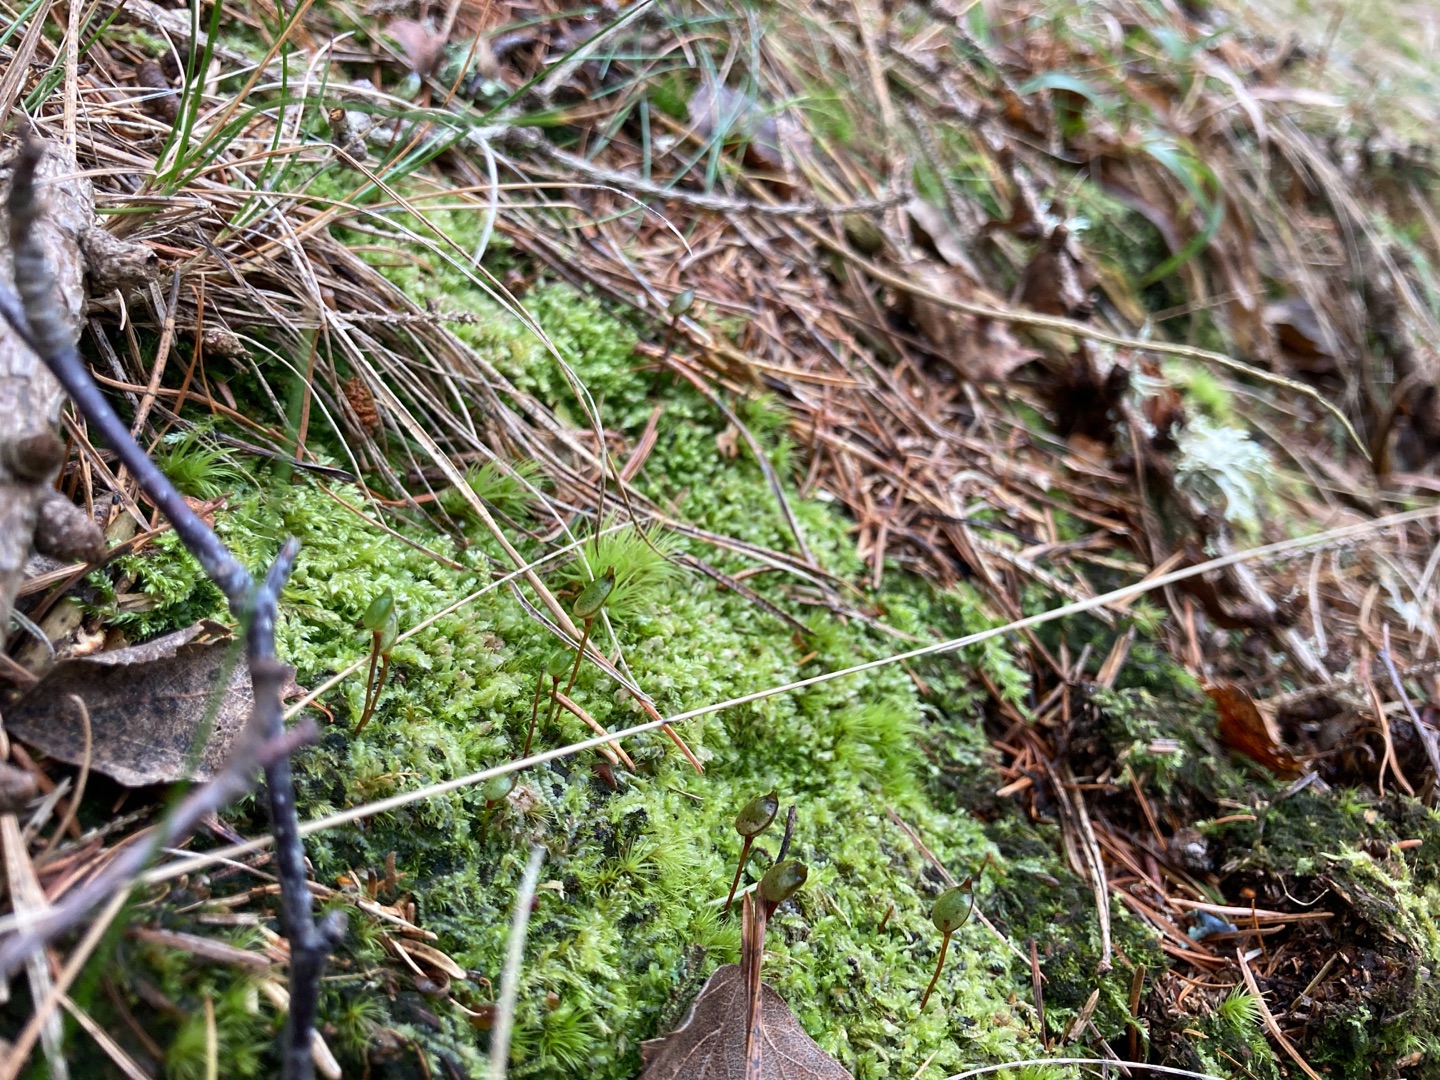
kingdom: Plantae
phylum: Bryophyta
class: Bryopsida
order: Buxbaumiales
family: Buxbaumiaceae
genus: Buxbaumia
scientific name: Buxbaumia aphylla
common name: Rundkapslet buxbaumia
